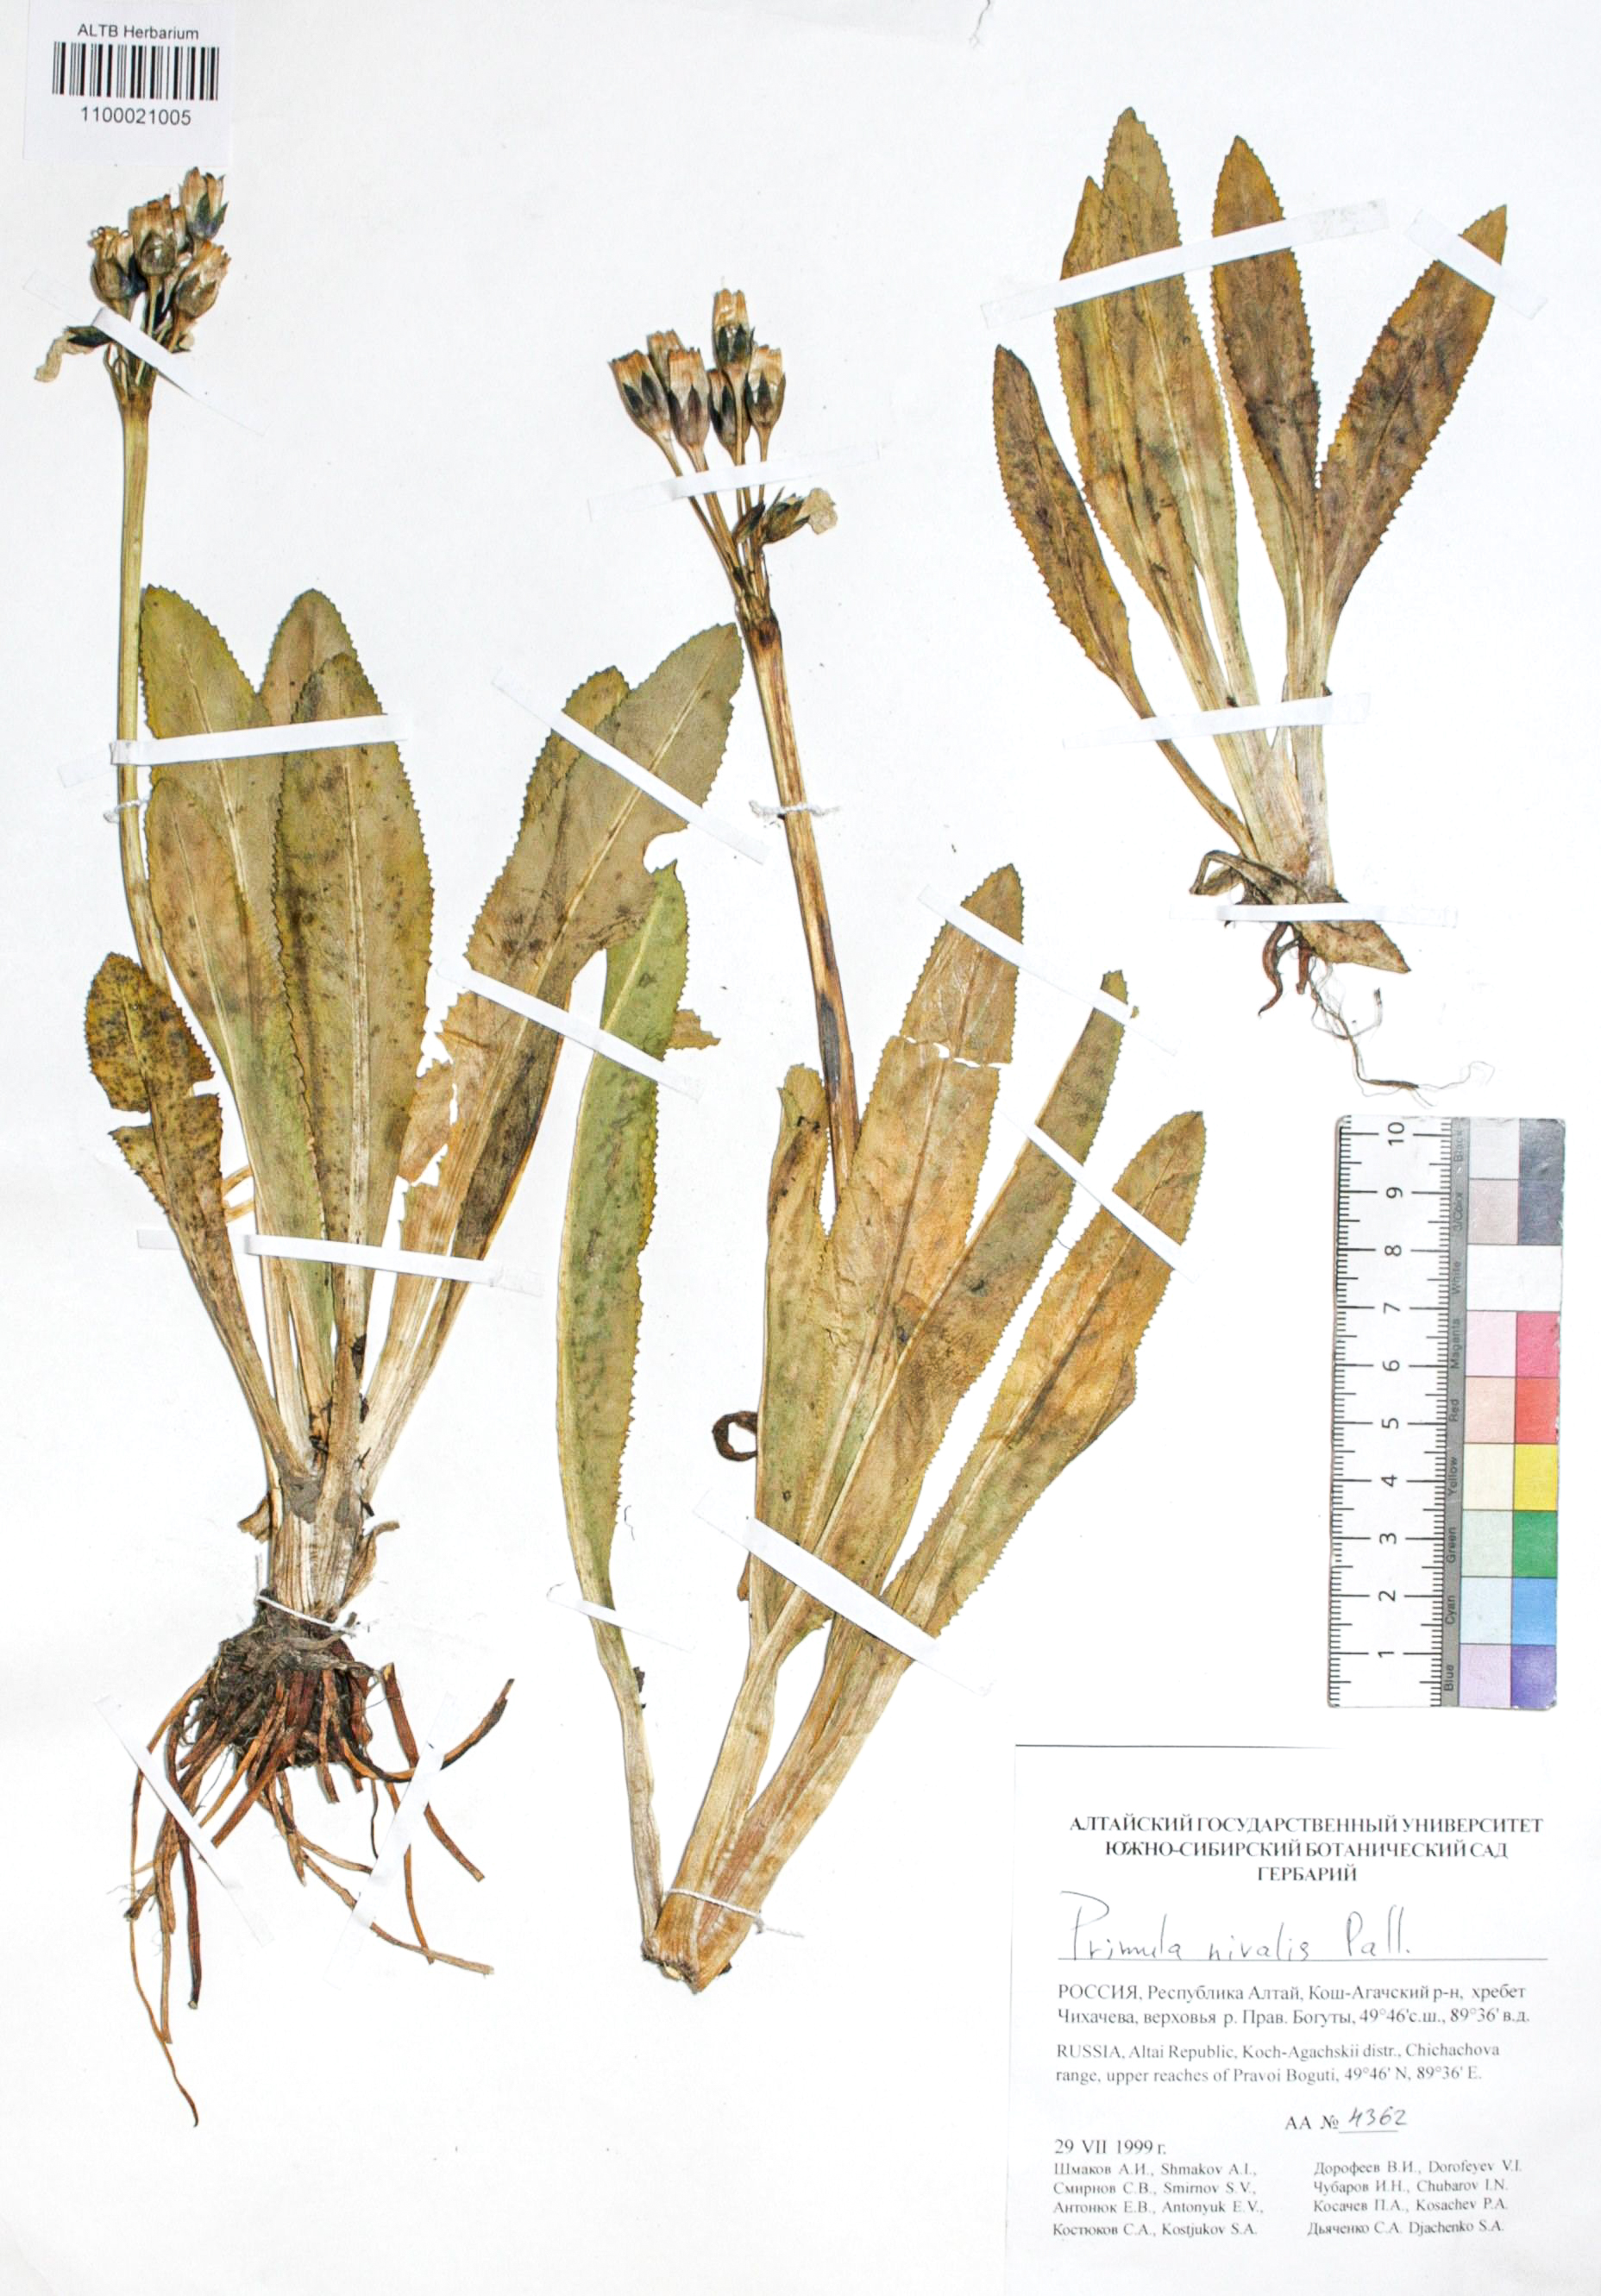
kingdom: Plantae
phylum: Tracheophyta
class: Magnoliopsida
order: Ericales
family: Primulaceae
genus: Primula
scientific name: Primula nivalis
